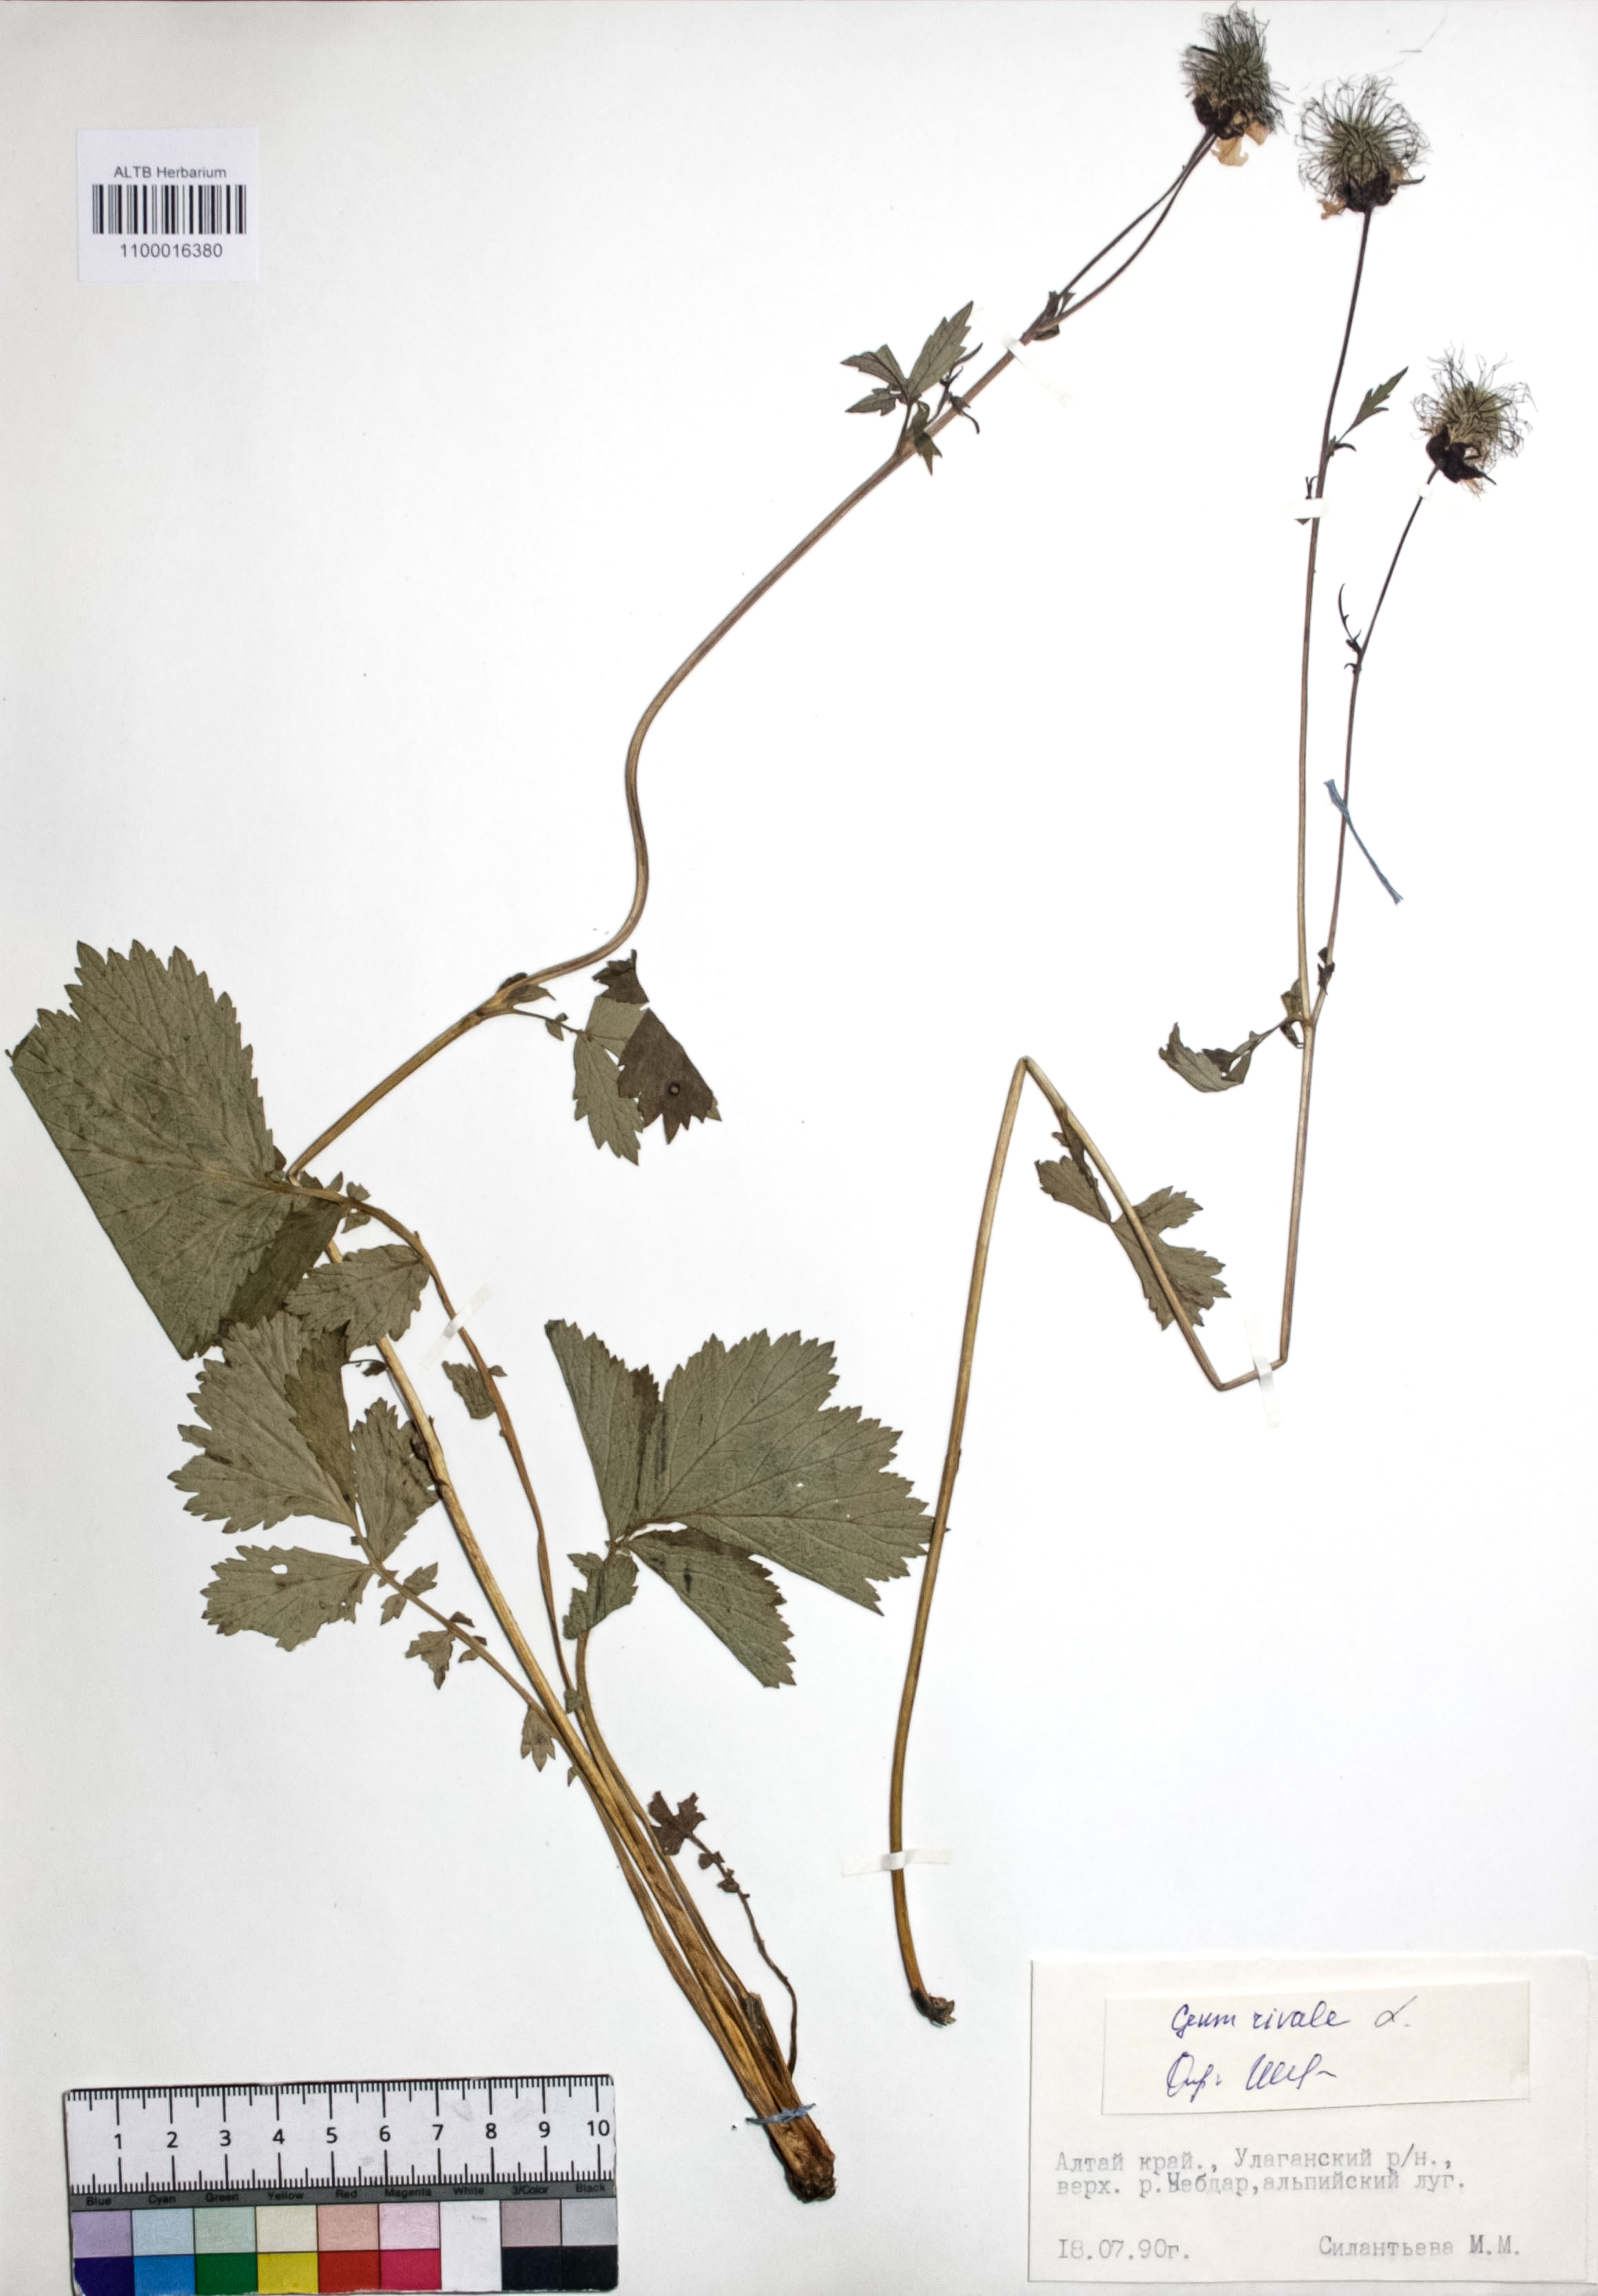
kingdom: Plantae
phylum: Tracheophyta
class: Magnoliopsida
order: Rosales
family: Rosaceae
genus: Geum
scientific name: Geum rivale
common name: Water avens
